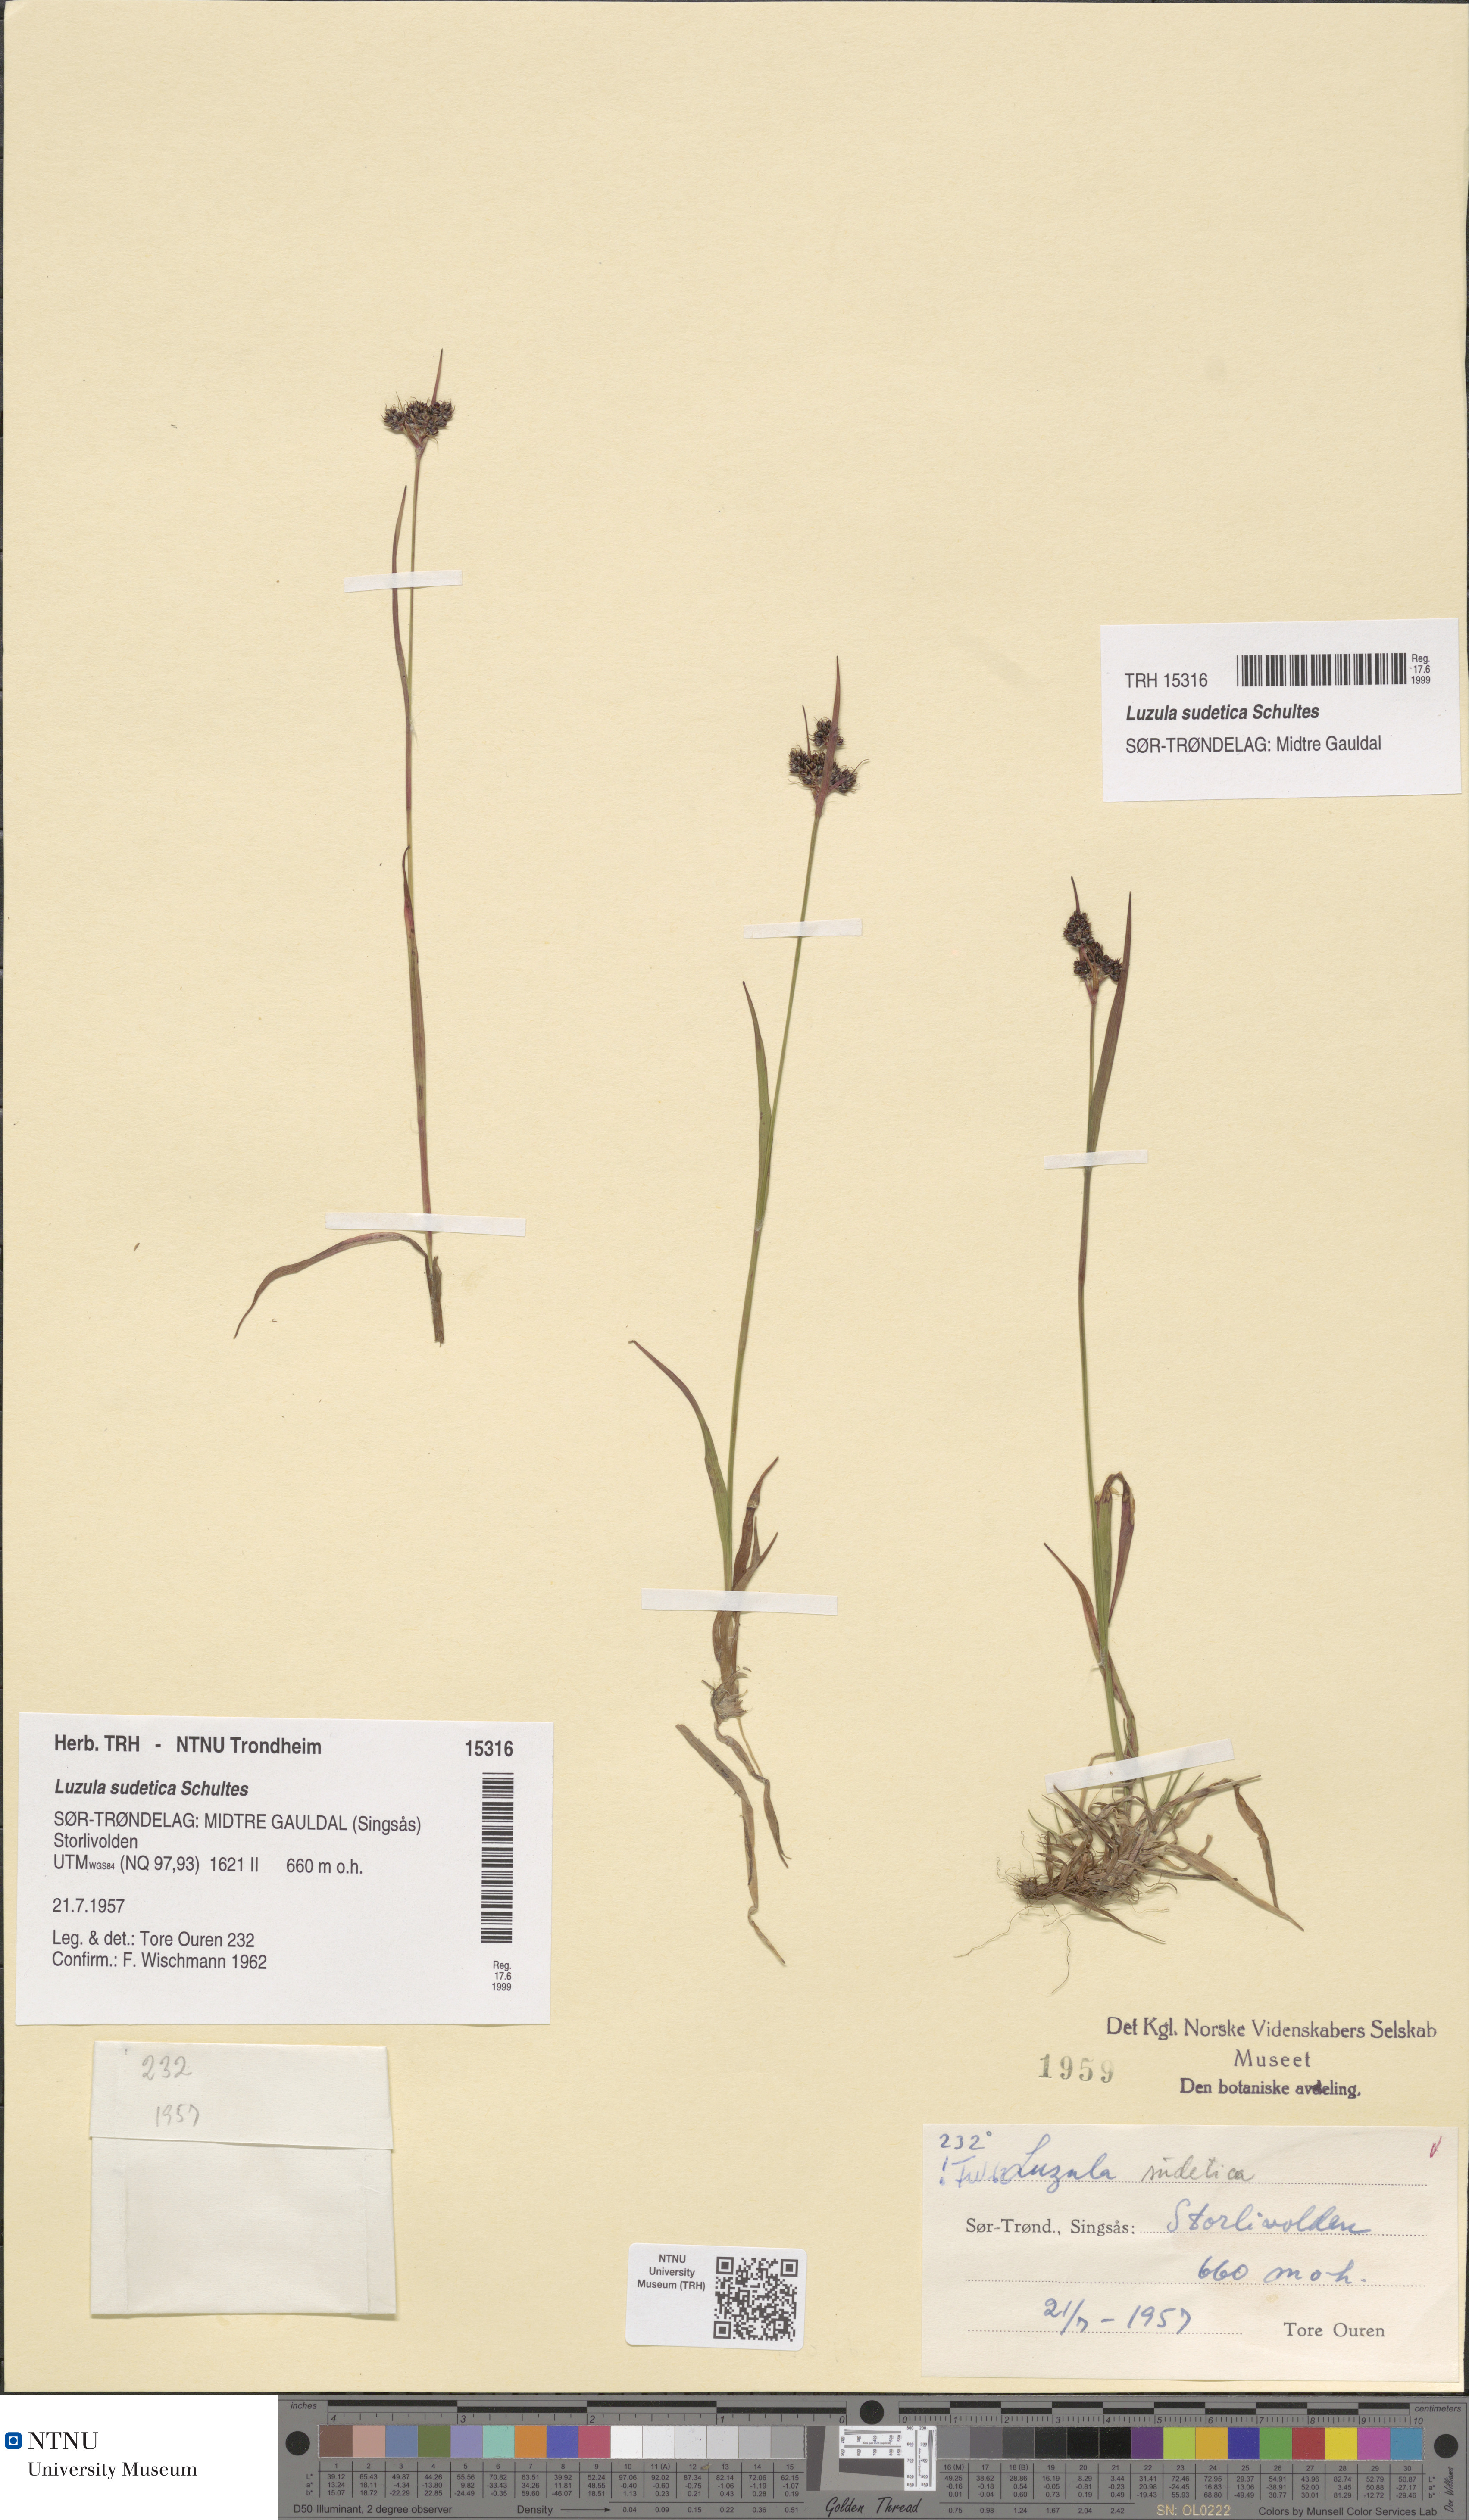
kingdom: Plantae
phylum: Tracheophyta
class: Liliopsida
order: Poales
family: Juncaceae
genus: Luzula
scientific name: Luzula sudetica
